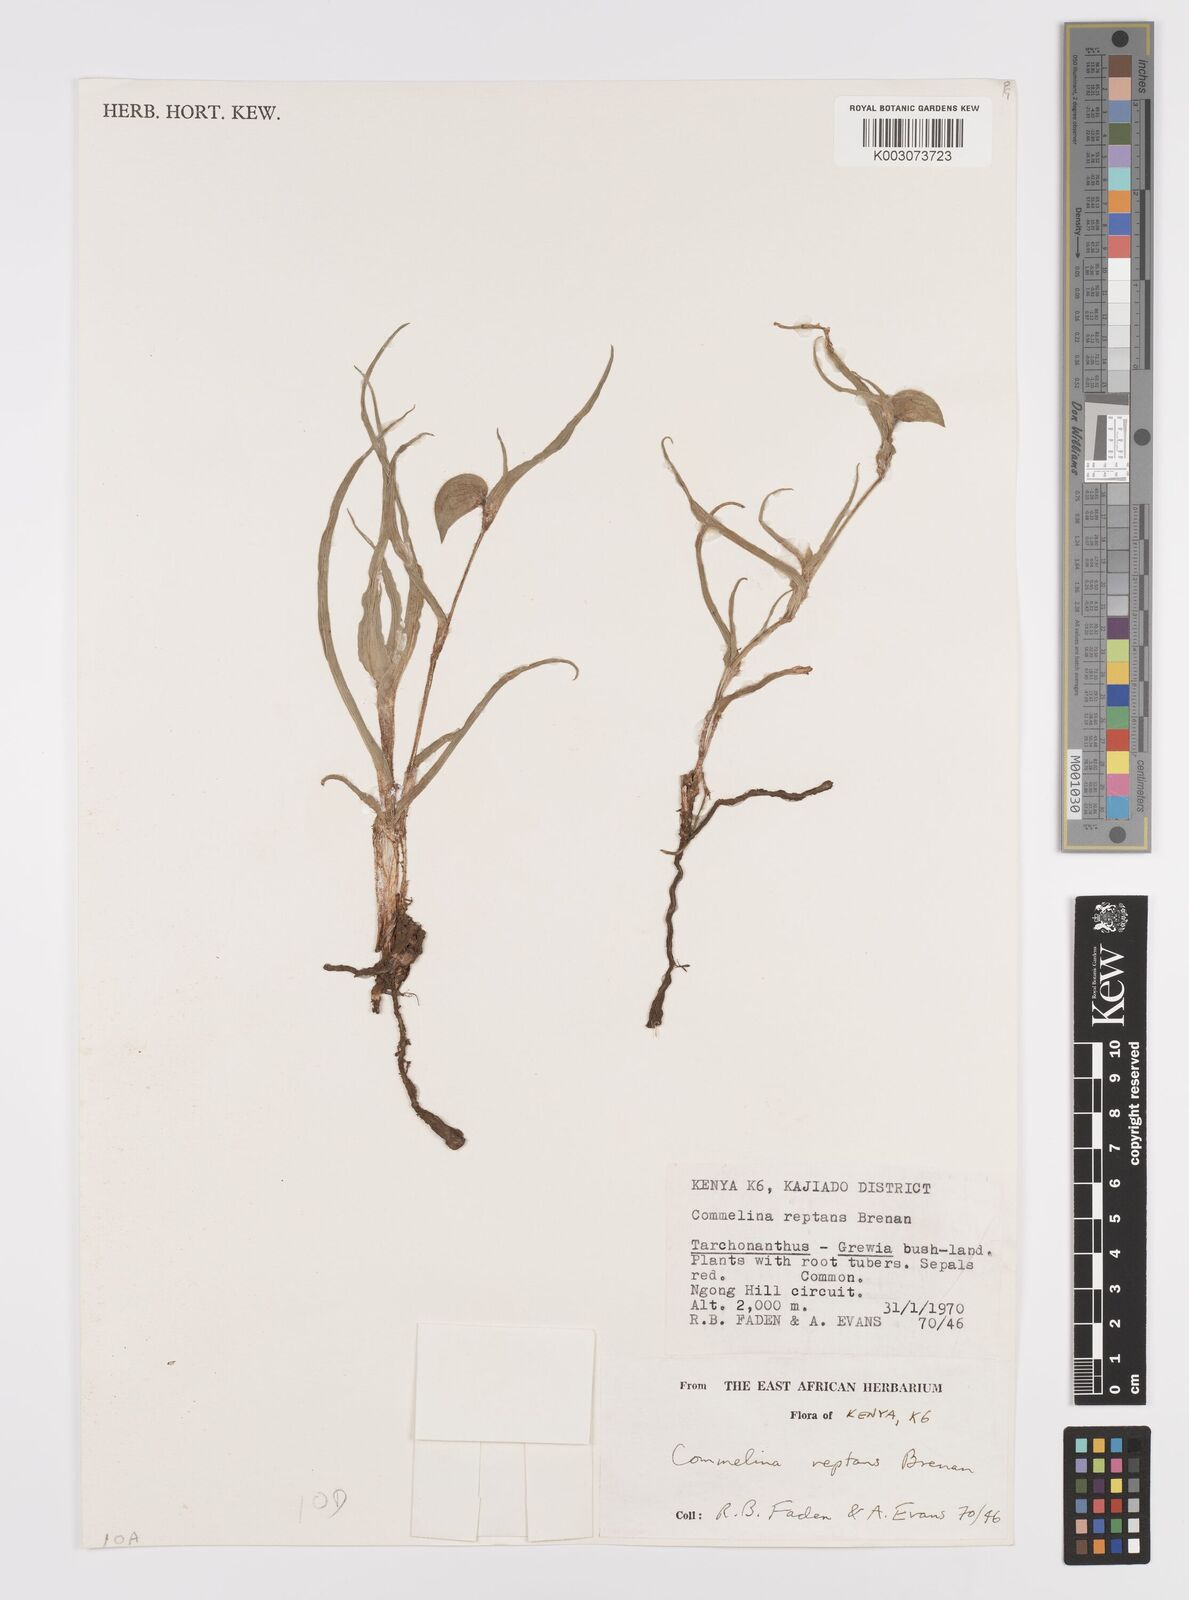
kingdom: Plantae
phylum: Tracheophyta
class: Liliopsida
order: Commelinales
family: Commelinaceae
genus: Commelina
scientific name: Commelina reptans
